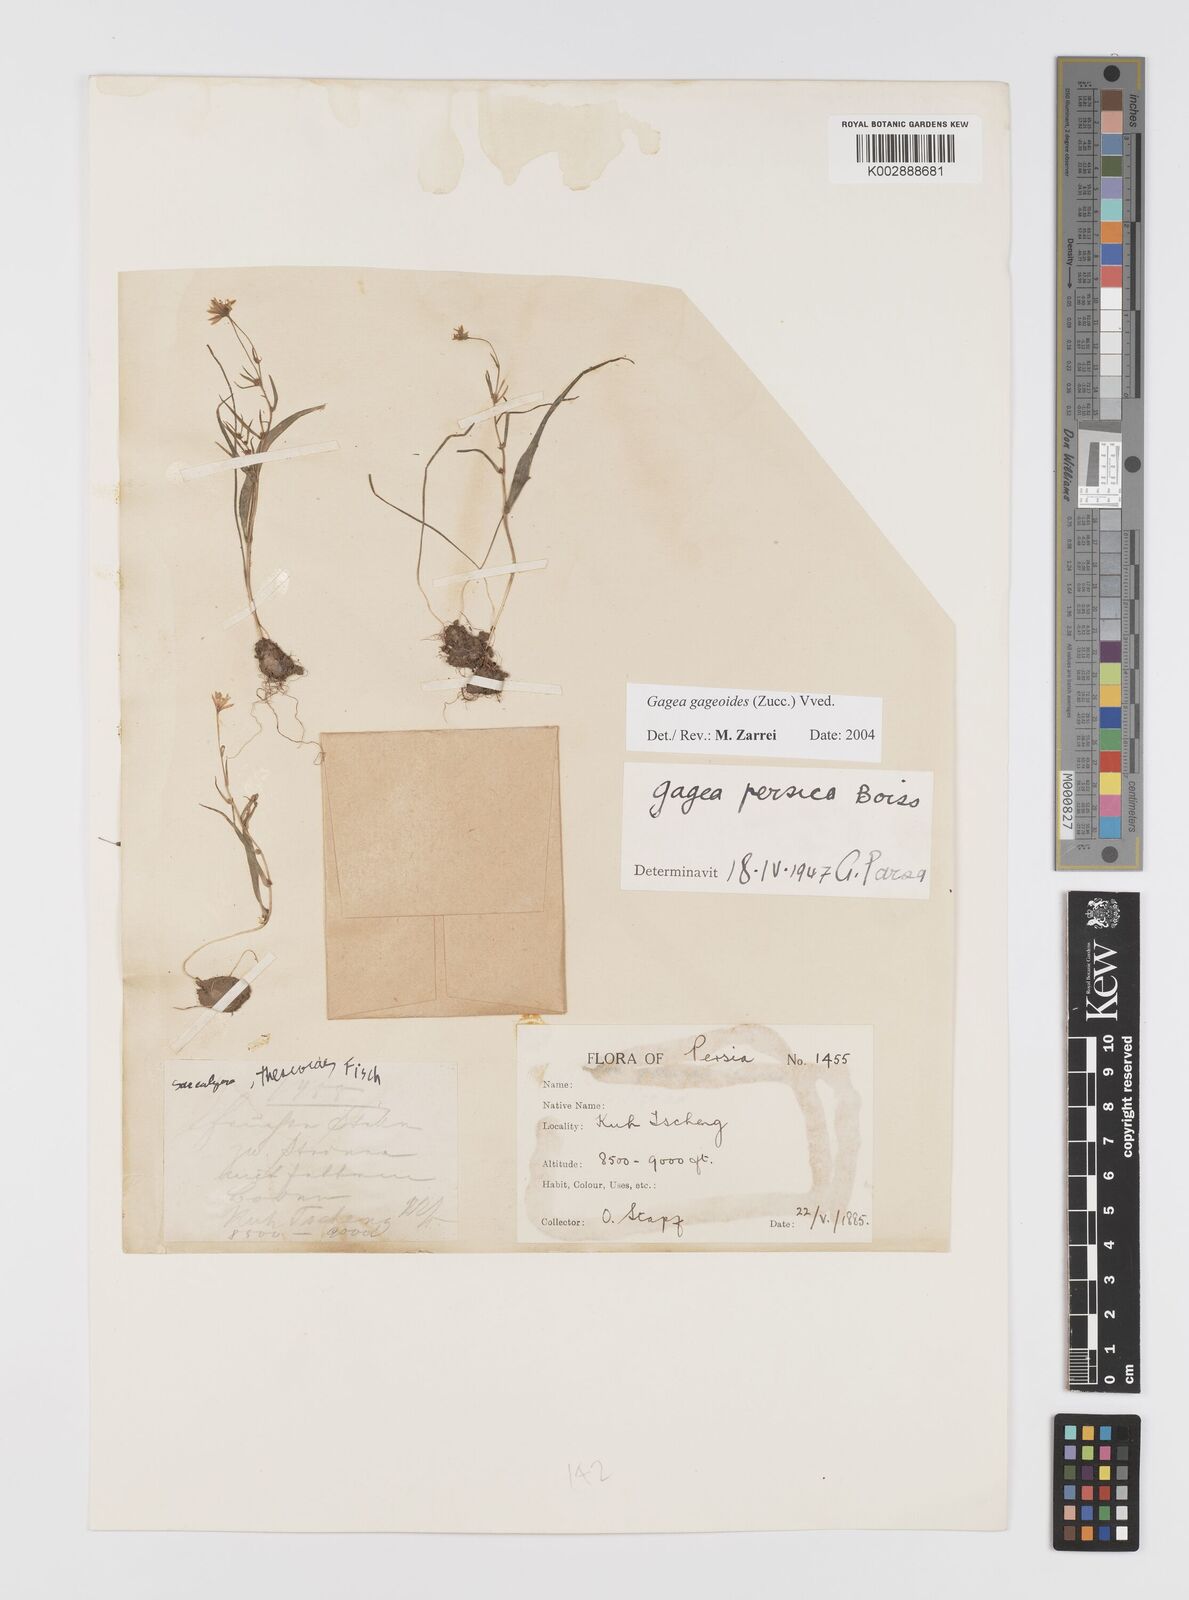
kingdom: Plantae
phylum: Tracheophyta
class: Liliopsida
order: Liliales
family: Liliaceae
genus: Gagea
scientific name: Gagea gageoides
